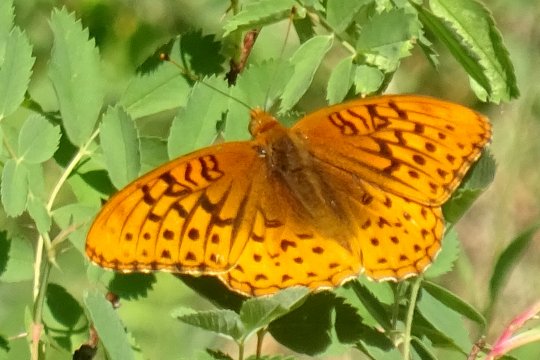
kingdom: Animalia
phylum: Arthropoda
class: Insecta
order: Lepidoptera
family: Nymphalidae
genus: Speyeria
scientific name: Speyeria
